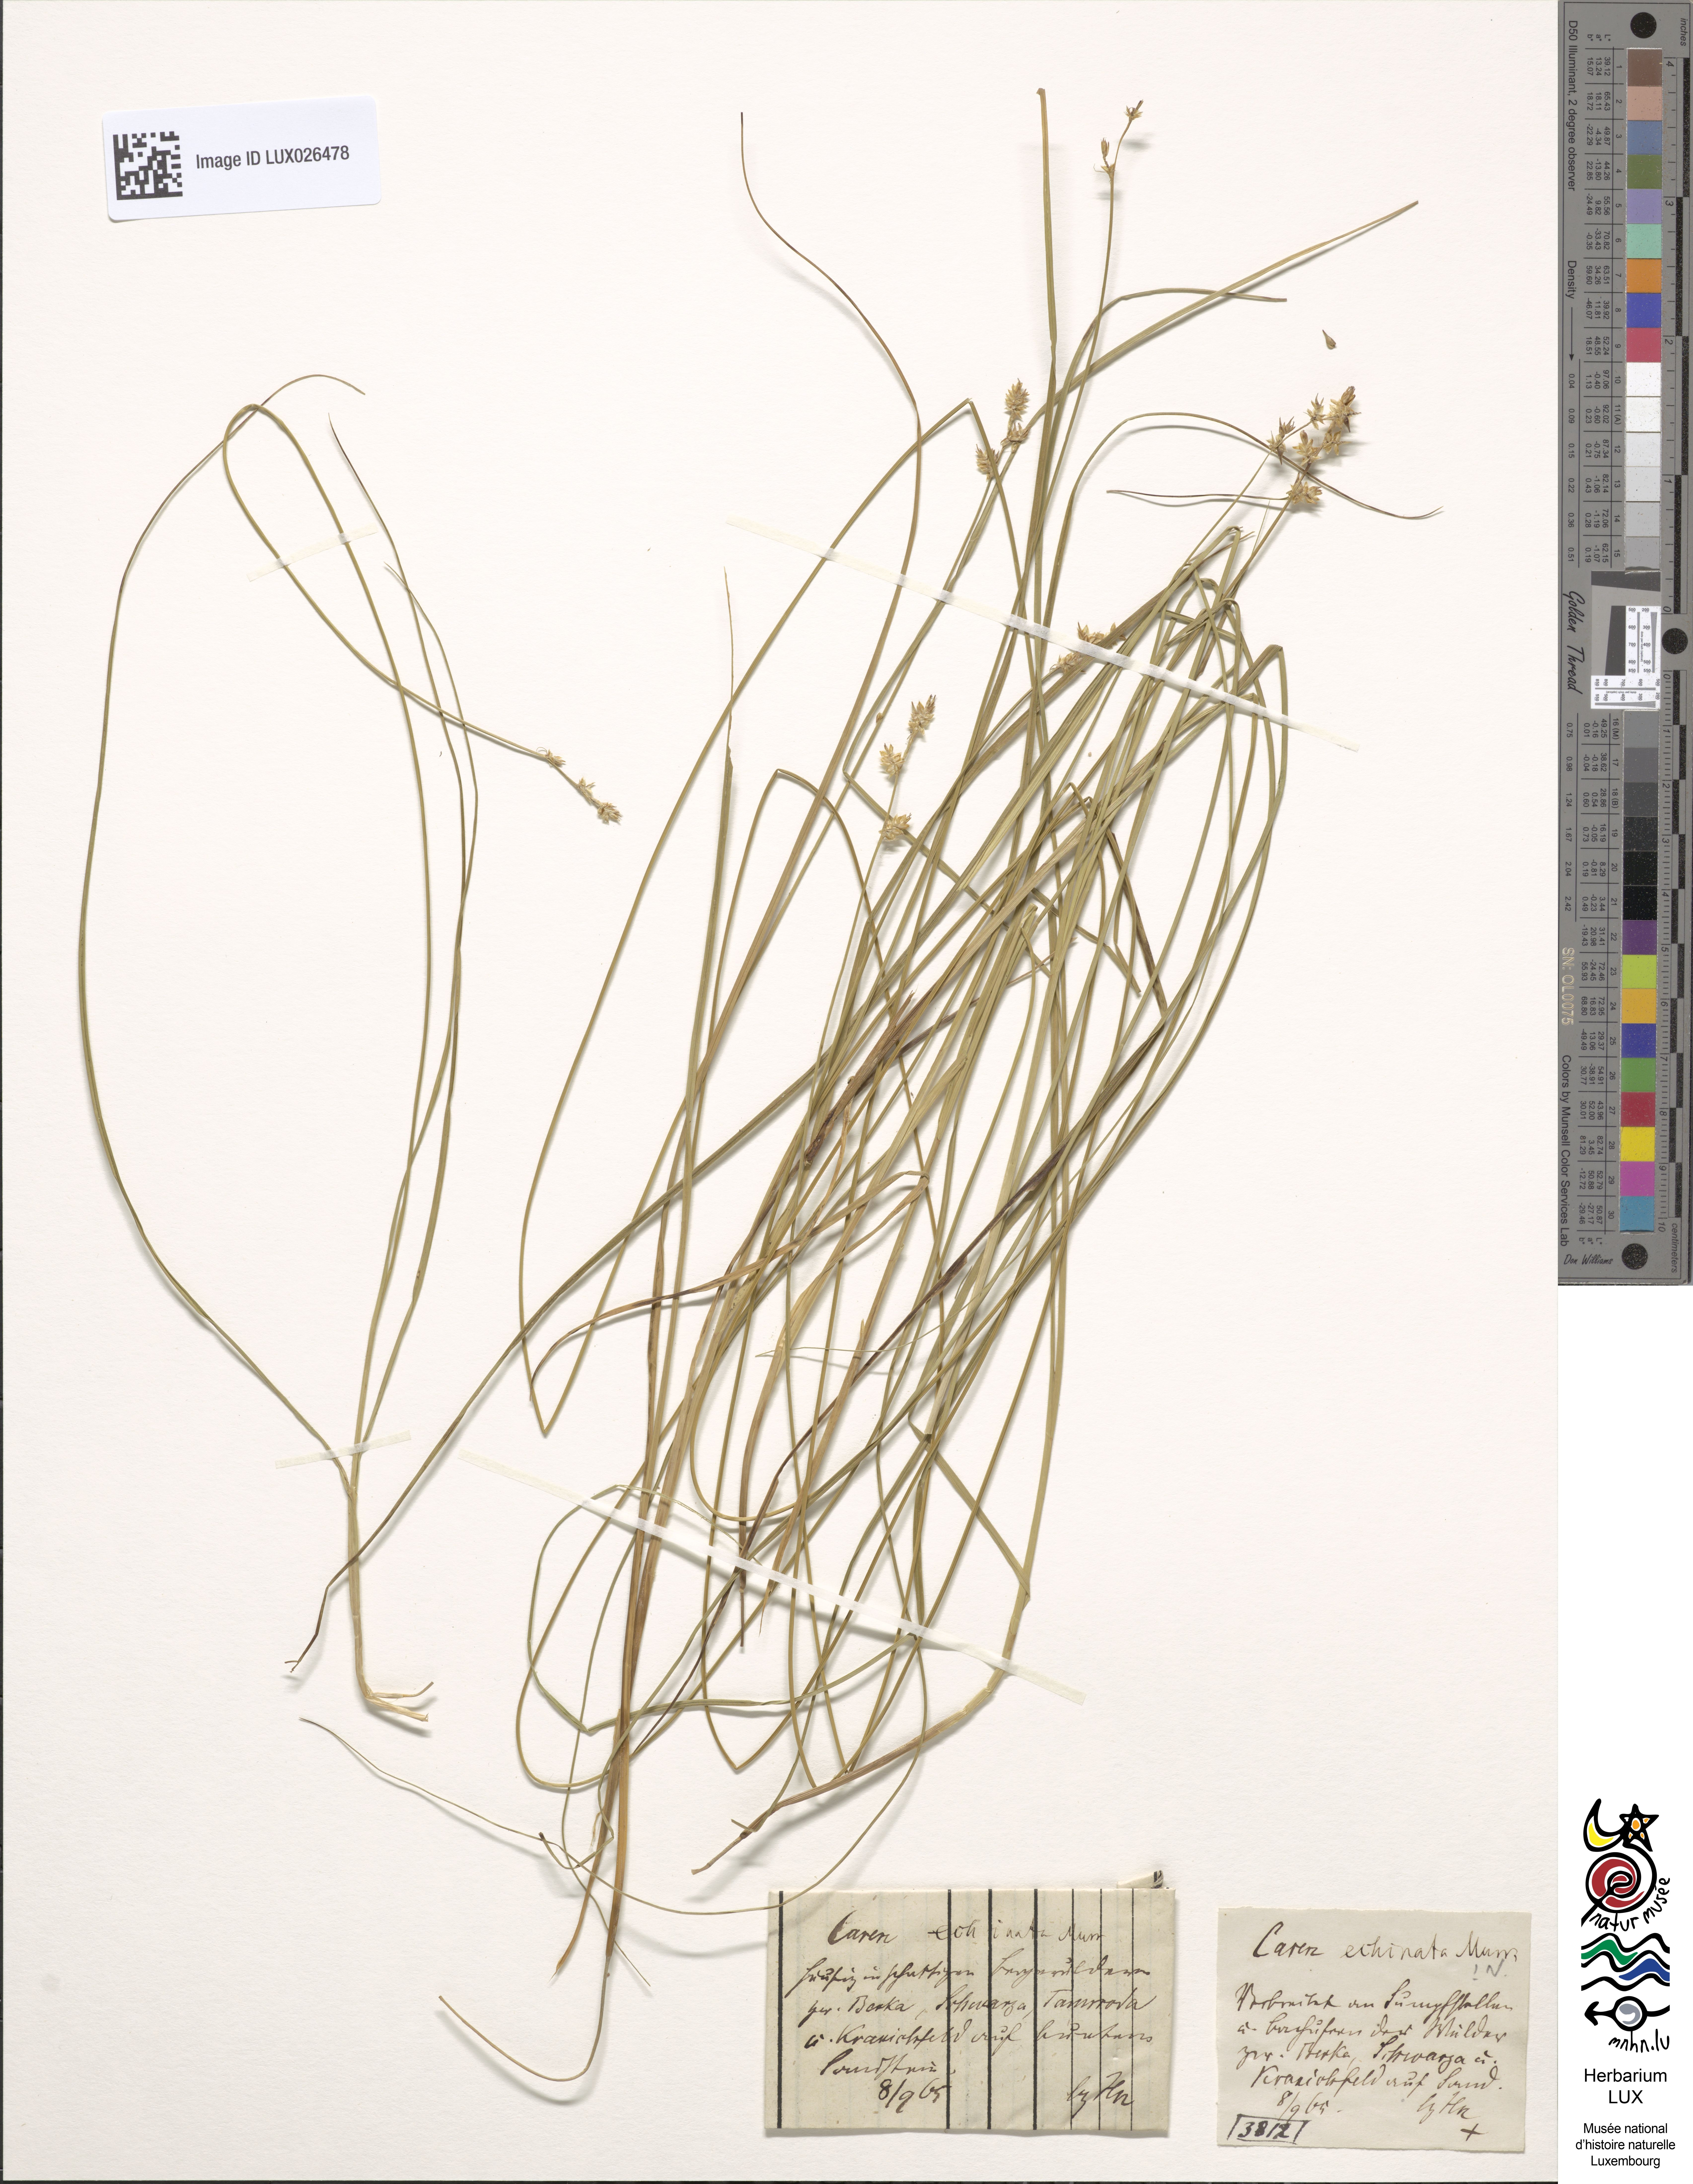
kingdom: Plantae
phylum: Tracheophyta
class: Liliopsida
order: Poales
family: Cyperaceae
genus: Carex
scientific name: Carex echinata
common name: Star sedge
